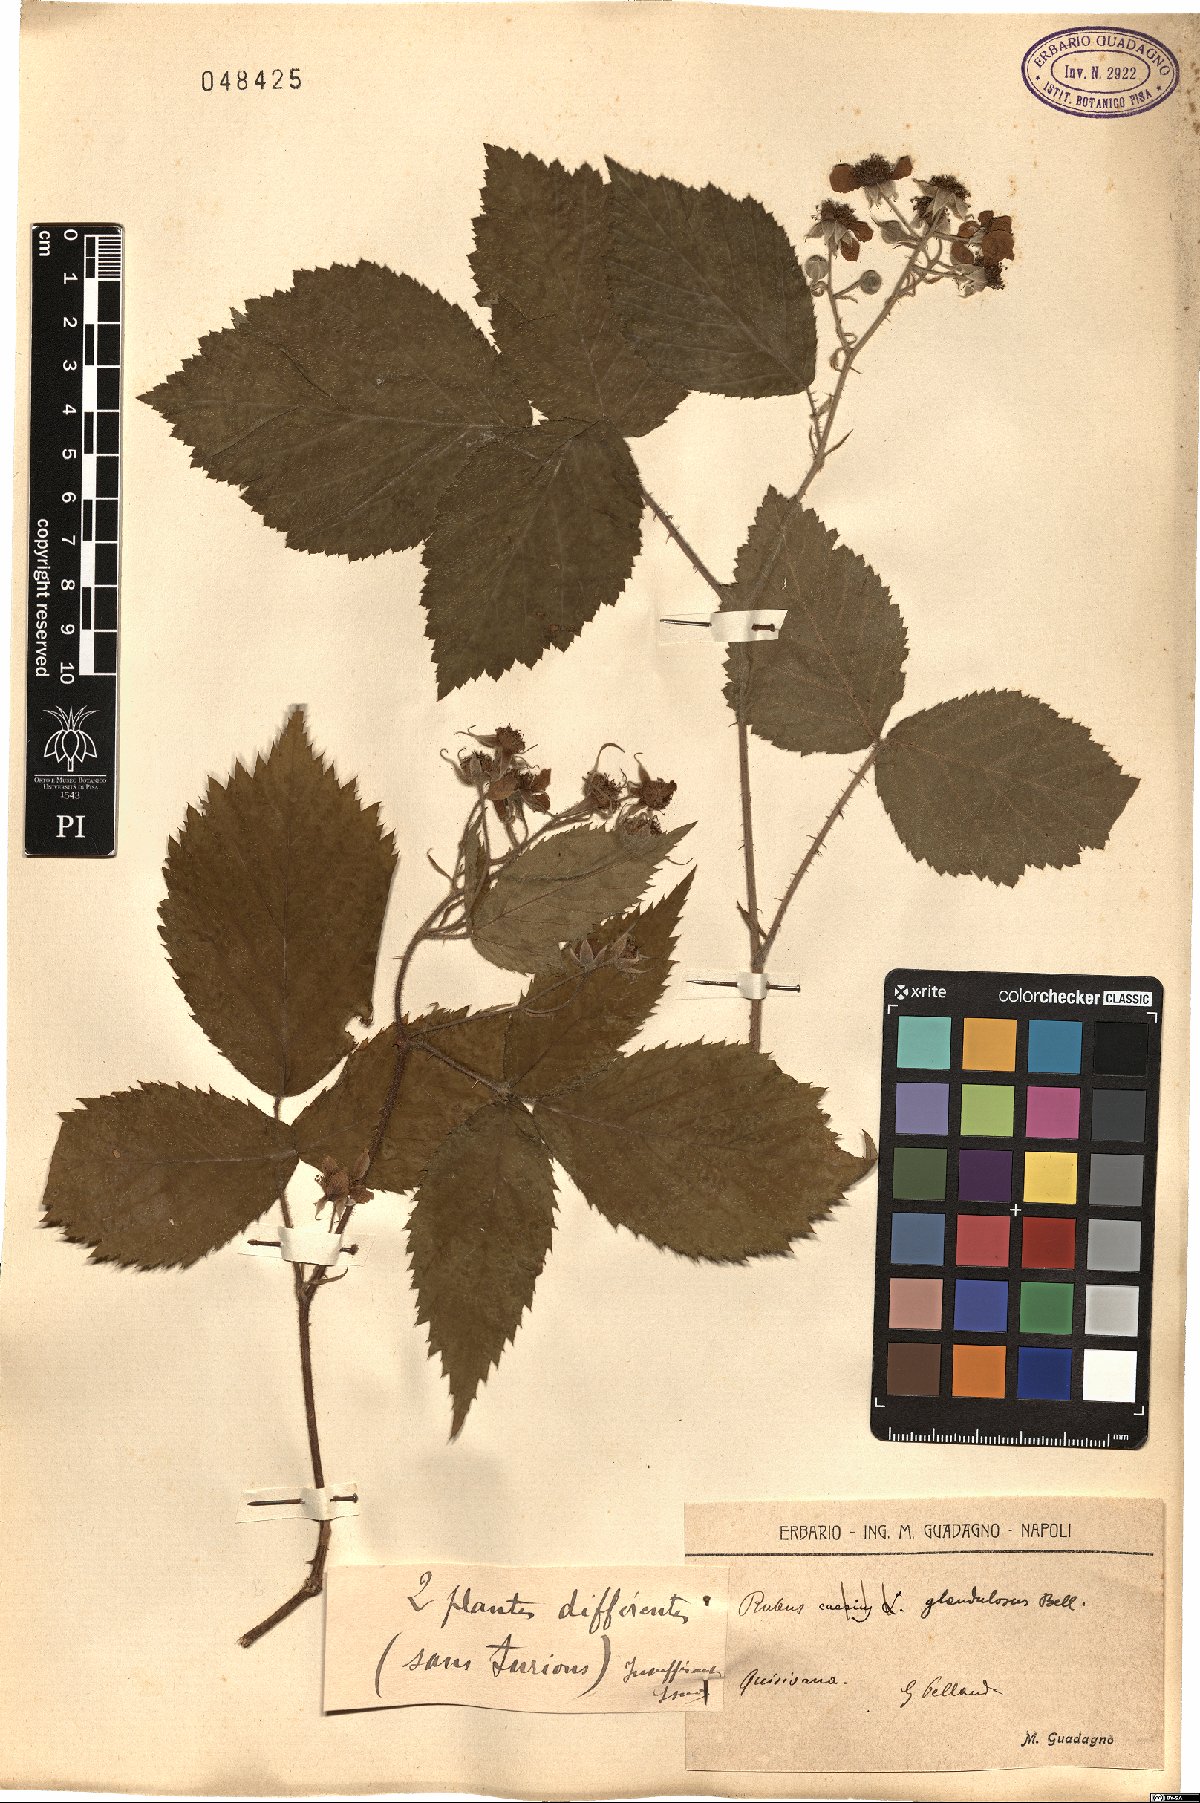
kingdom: Plantae
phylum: Tracheophyta
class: Magnoliopsida
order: Rosales
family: Rosaceae
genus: Rubus
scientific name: Rubus hirtus
